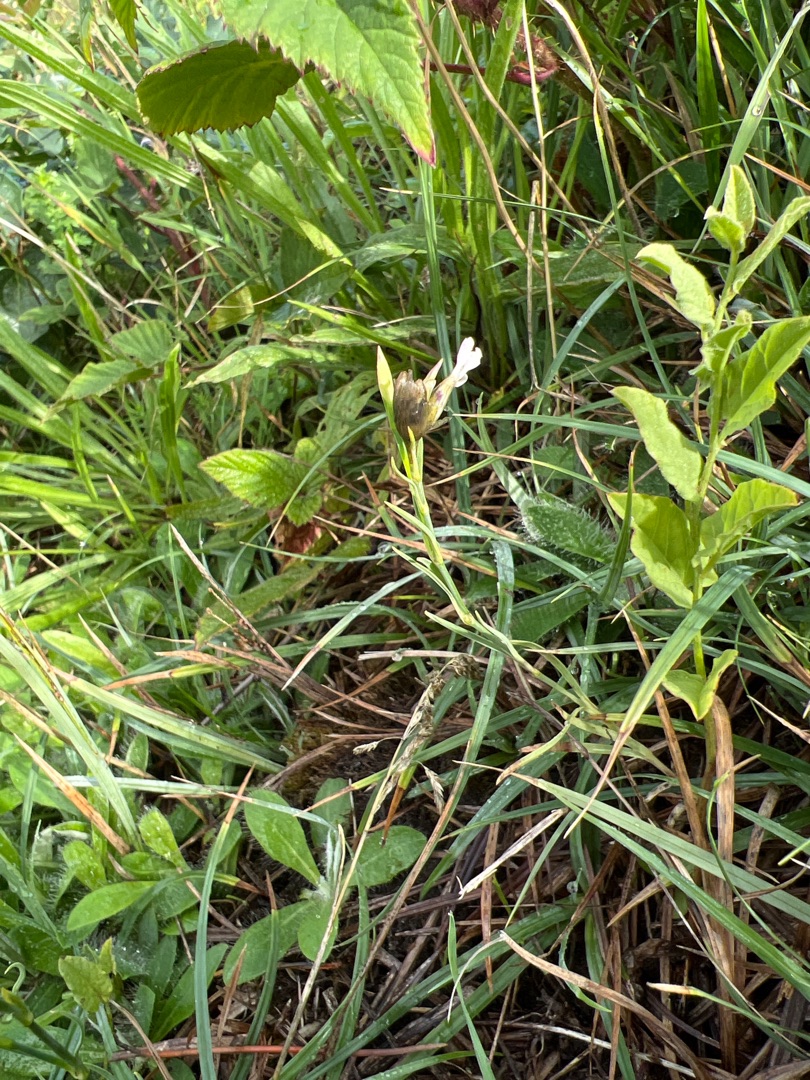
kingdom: Plantae
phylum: Tracheophyta
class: Magnoliopsida
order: Caryophyllales
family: Caryophyllaceae
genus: Petrorhagia
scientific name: Petrorhagia prolifera
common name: Knopnellike
